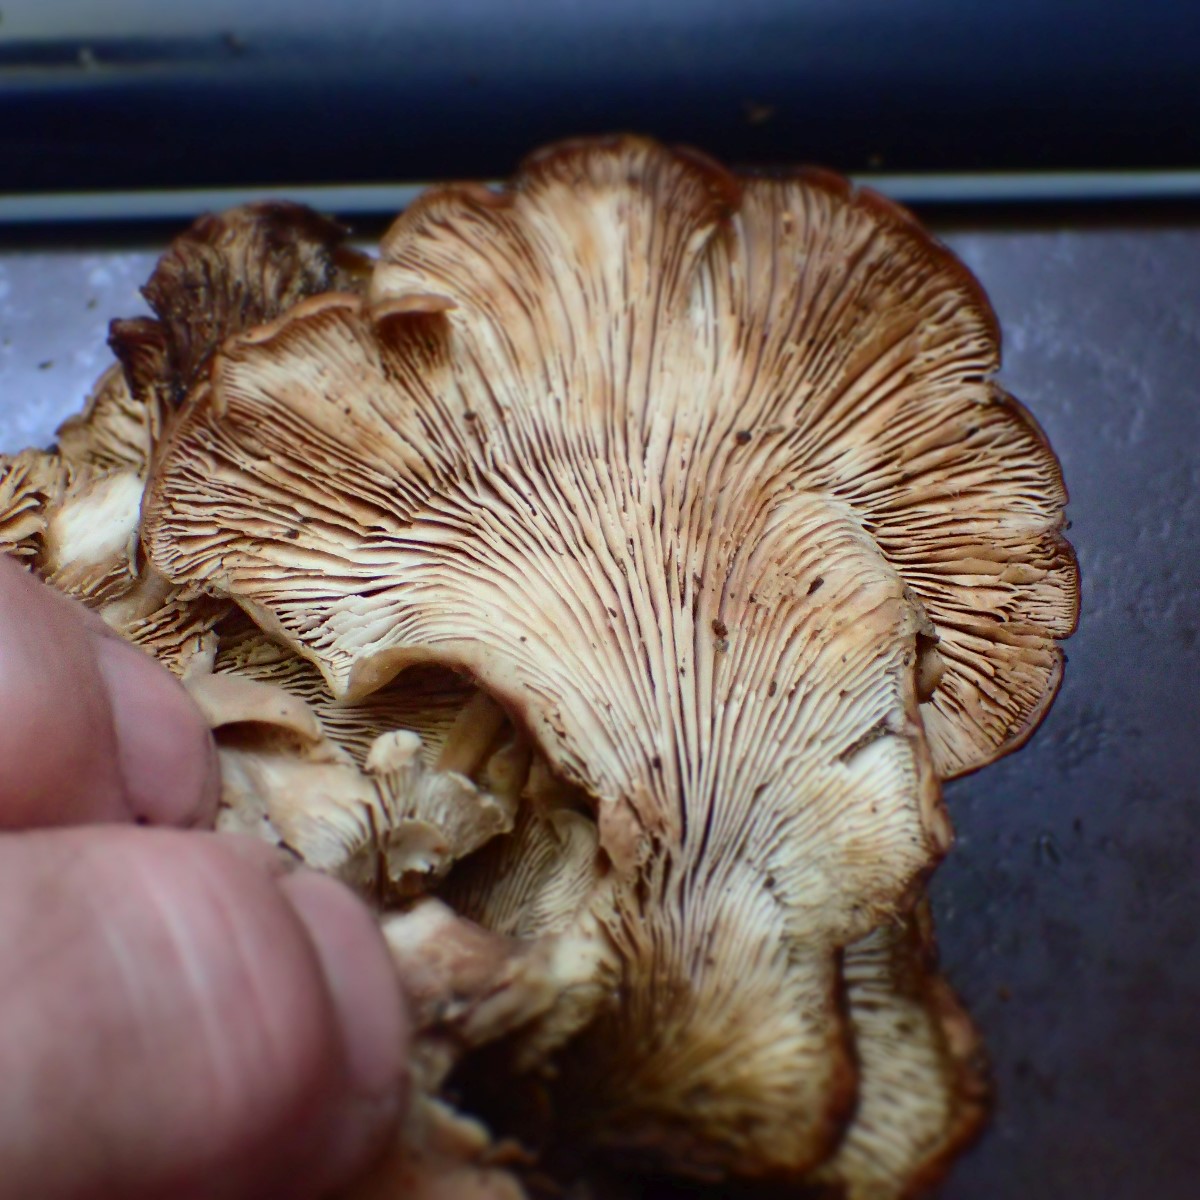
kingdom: Fungi
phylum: Basidiomycota
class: Agaricomycetes
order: Russulales
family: Auriscalpiaceae
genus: Lentinellus
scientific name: Lentinellus ursinus
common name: børstehåret savbladhat
